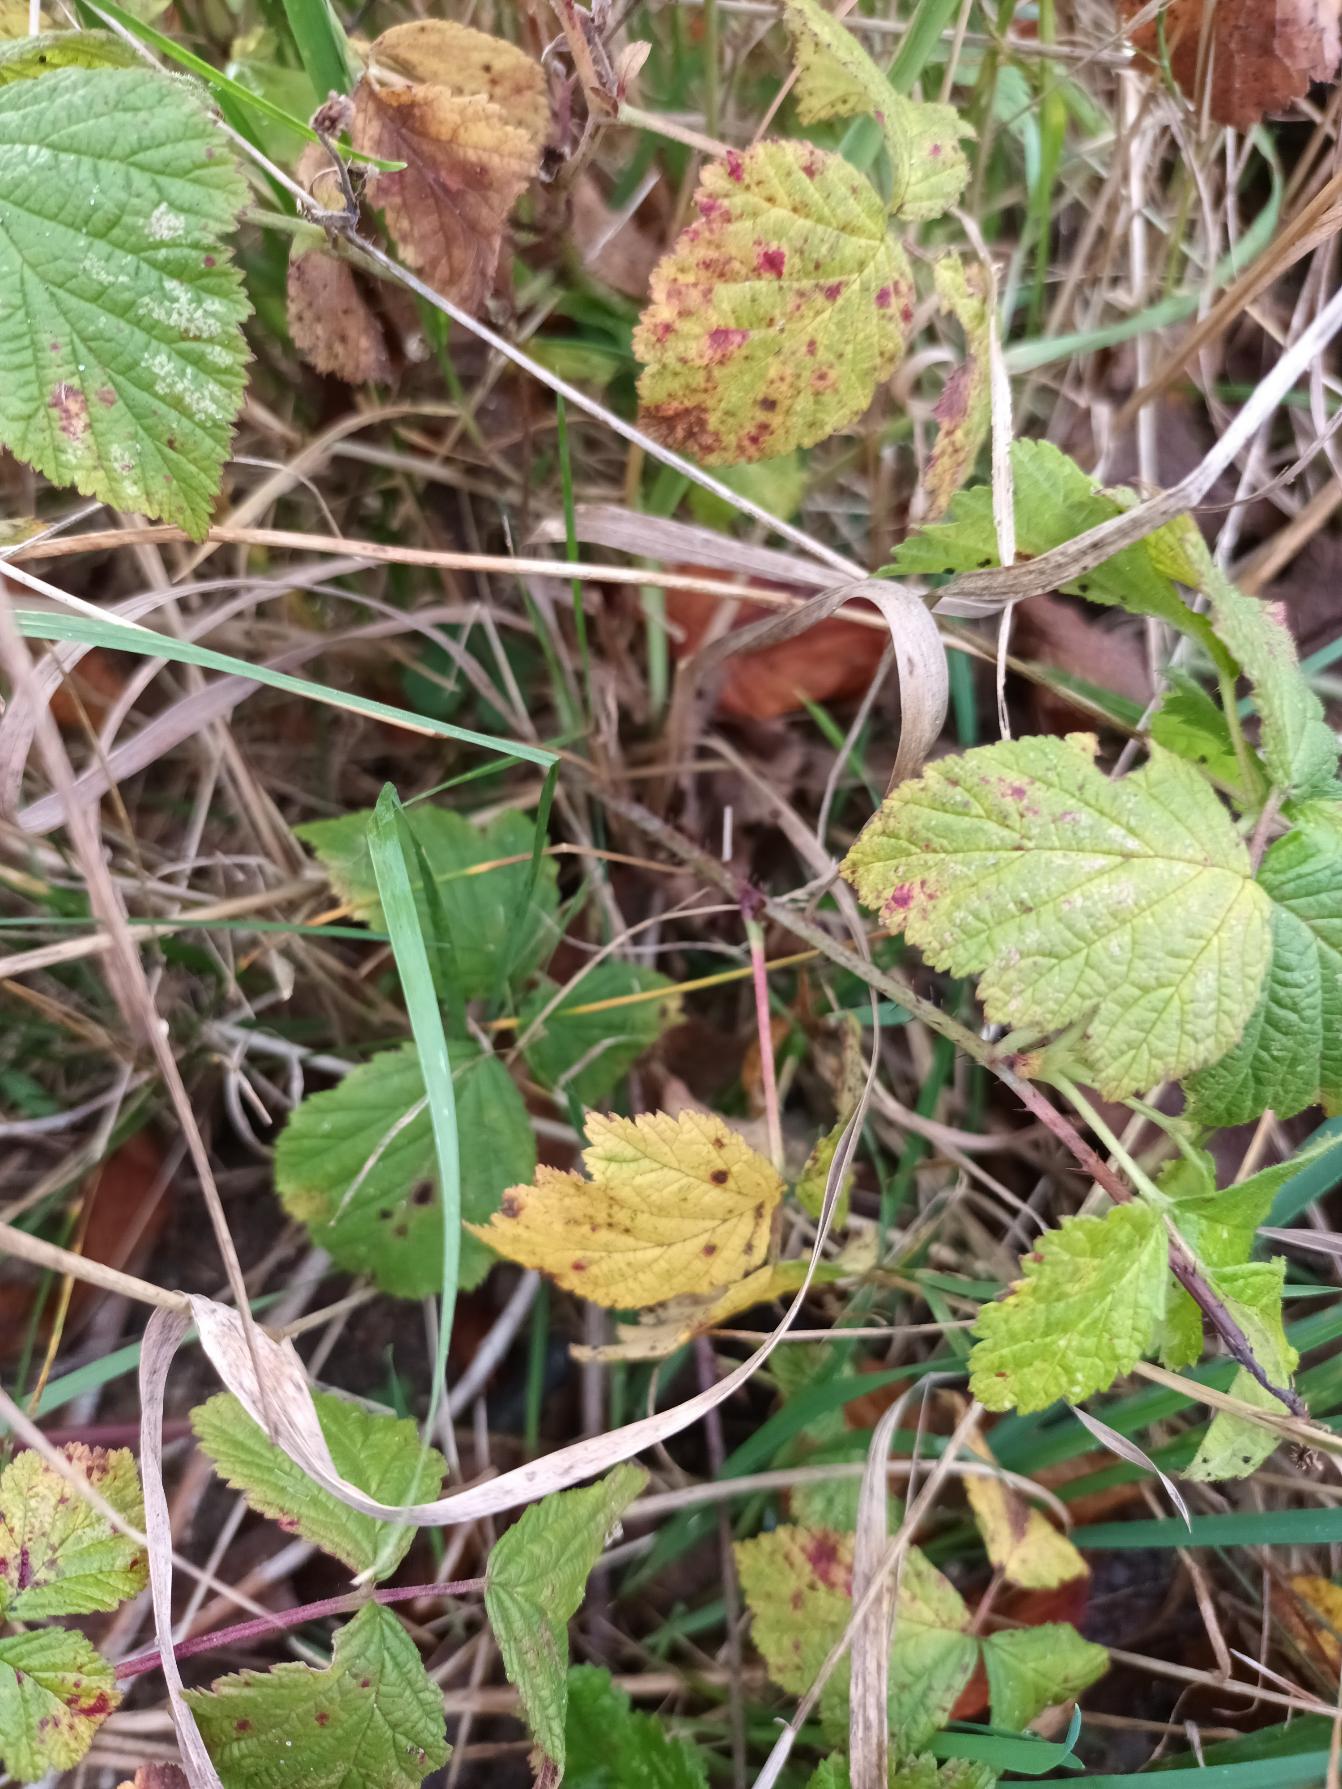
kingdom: Plantae
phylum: Tracheophyta
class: Magnoliopsida
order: Rosales
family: Rosaceae
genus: Rubus
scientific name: Rubus caesius
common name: Korbær
